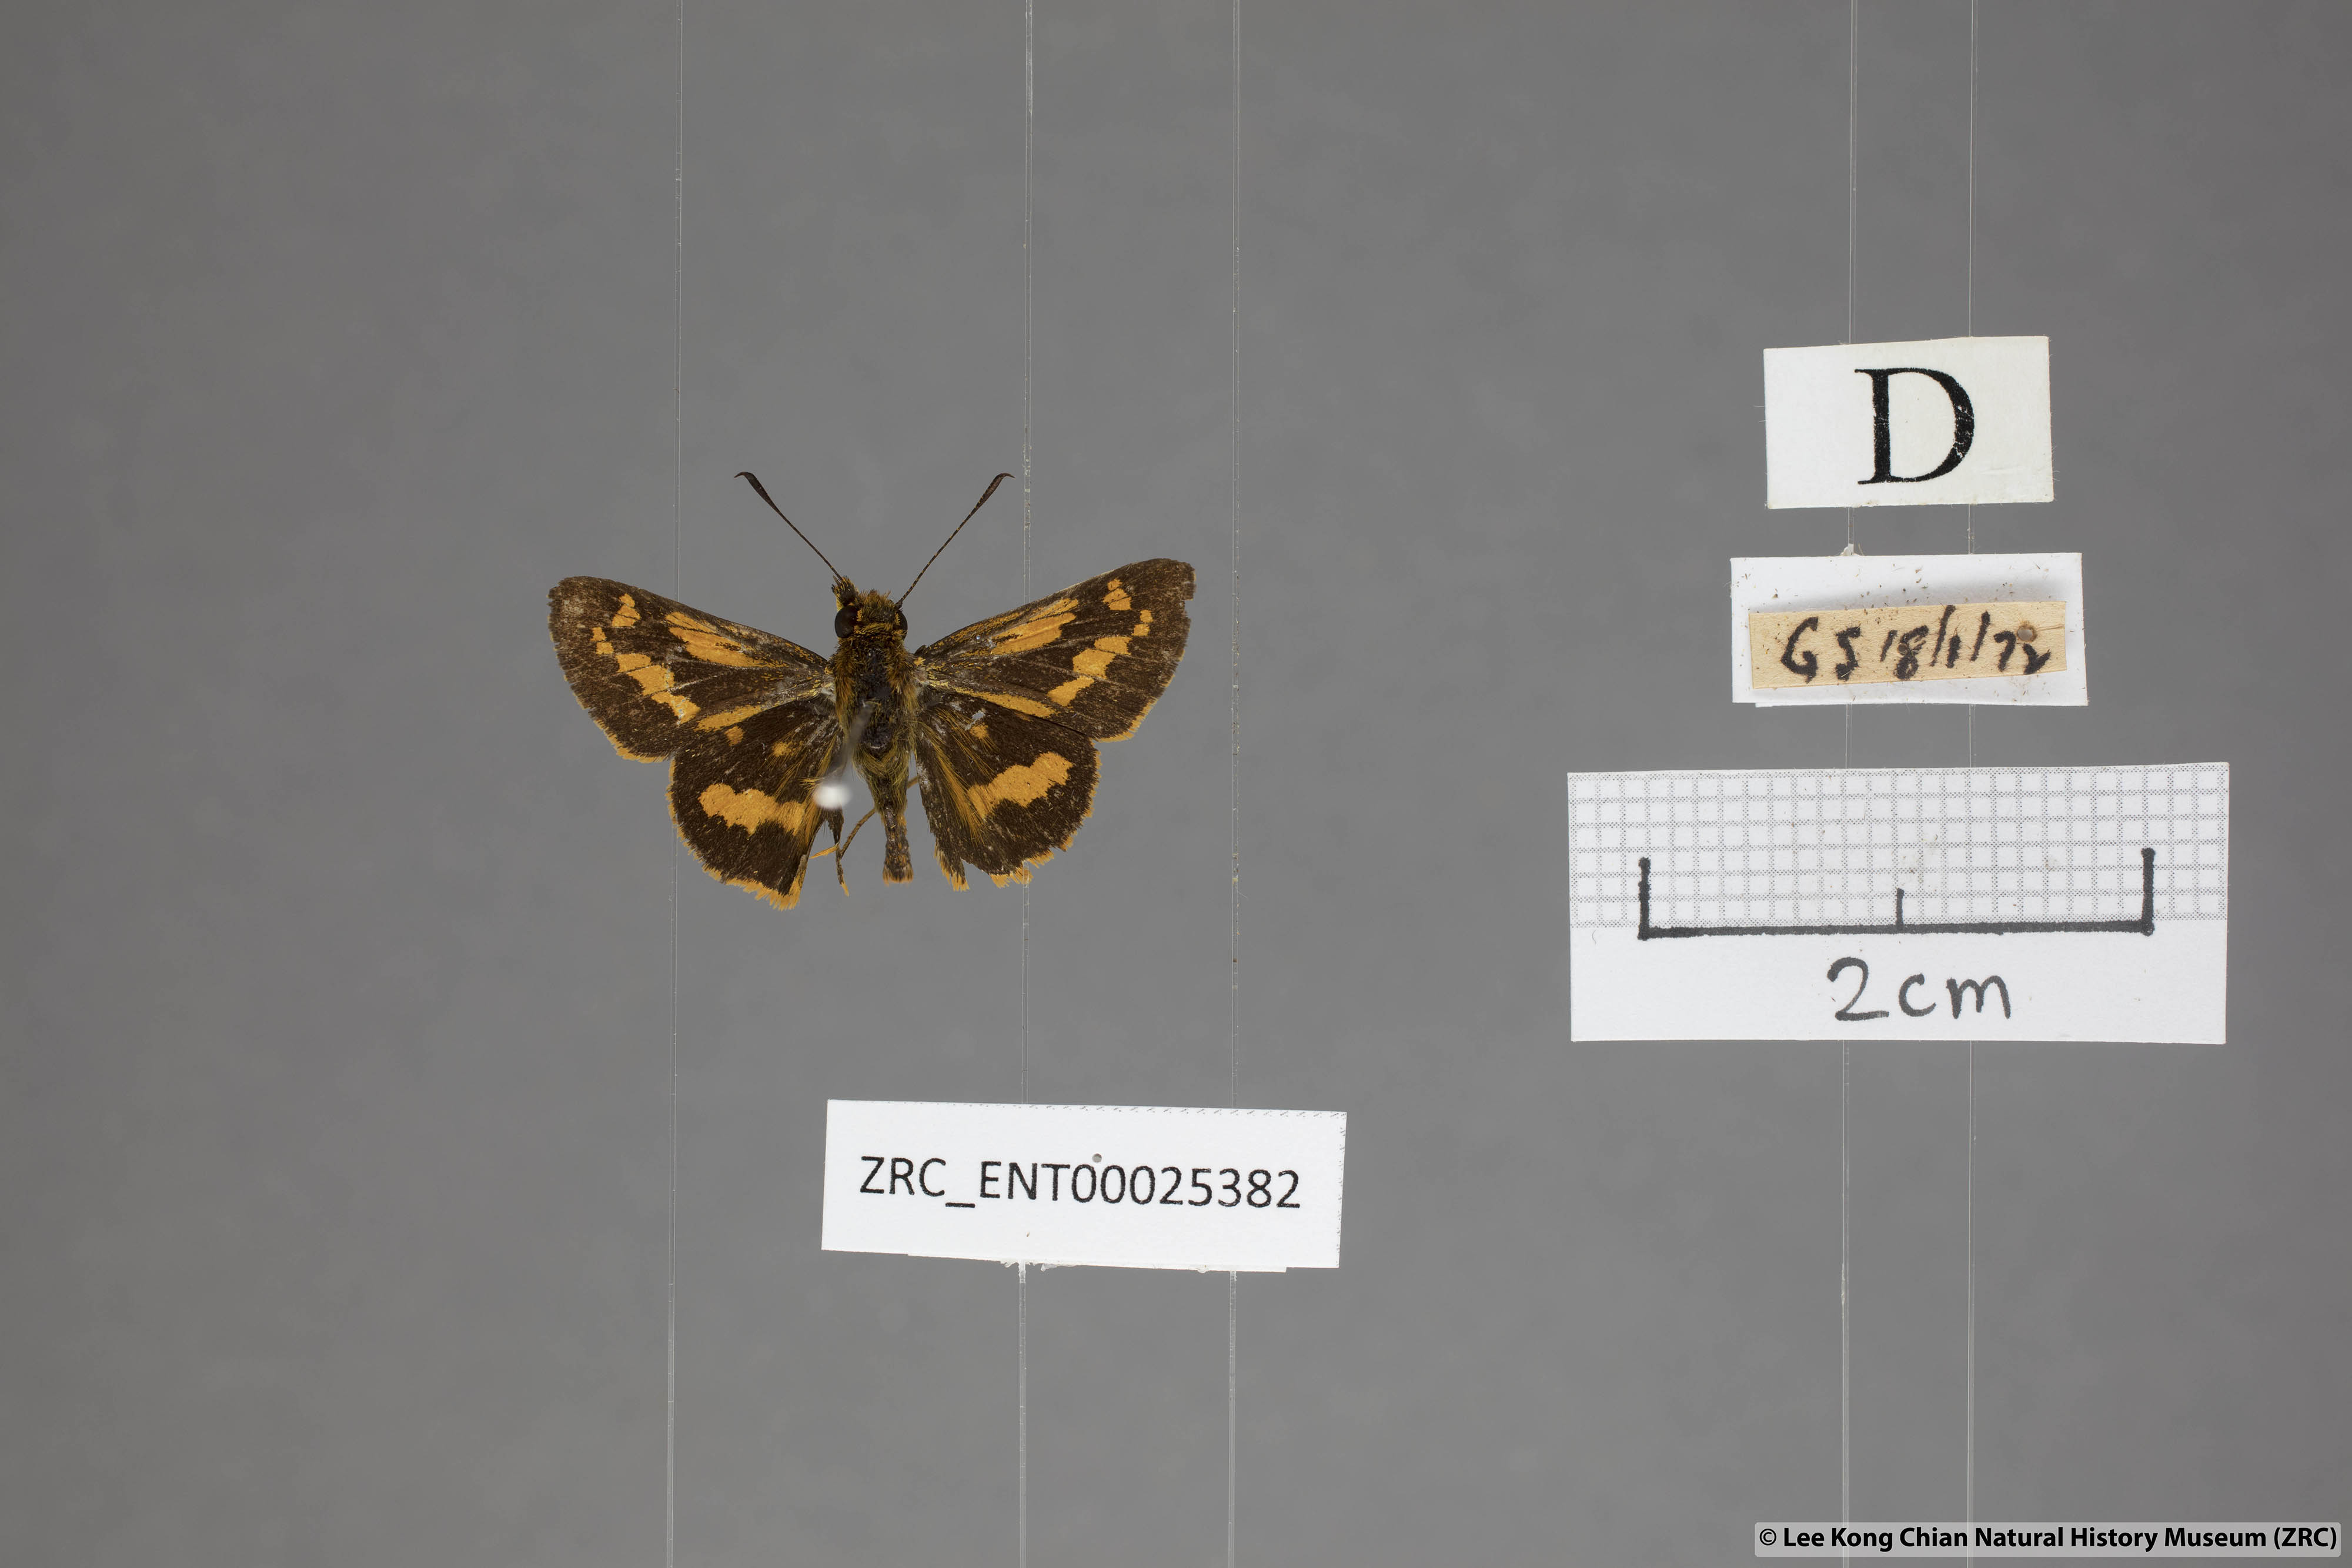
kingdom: Animalia
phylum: Arthropoda
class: Insecta
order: Lepidoptera
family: Hesperiidae
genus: Potanthus
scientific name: Potanthus ganda
